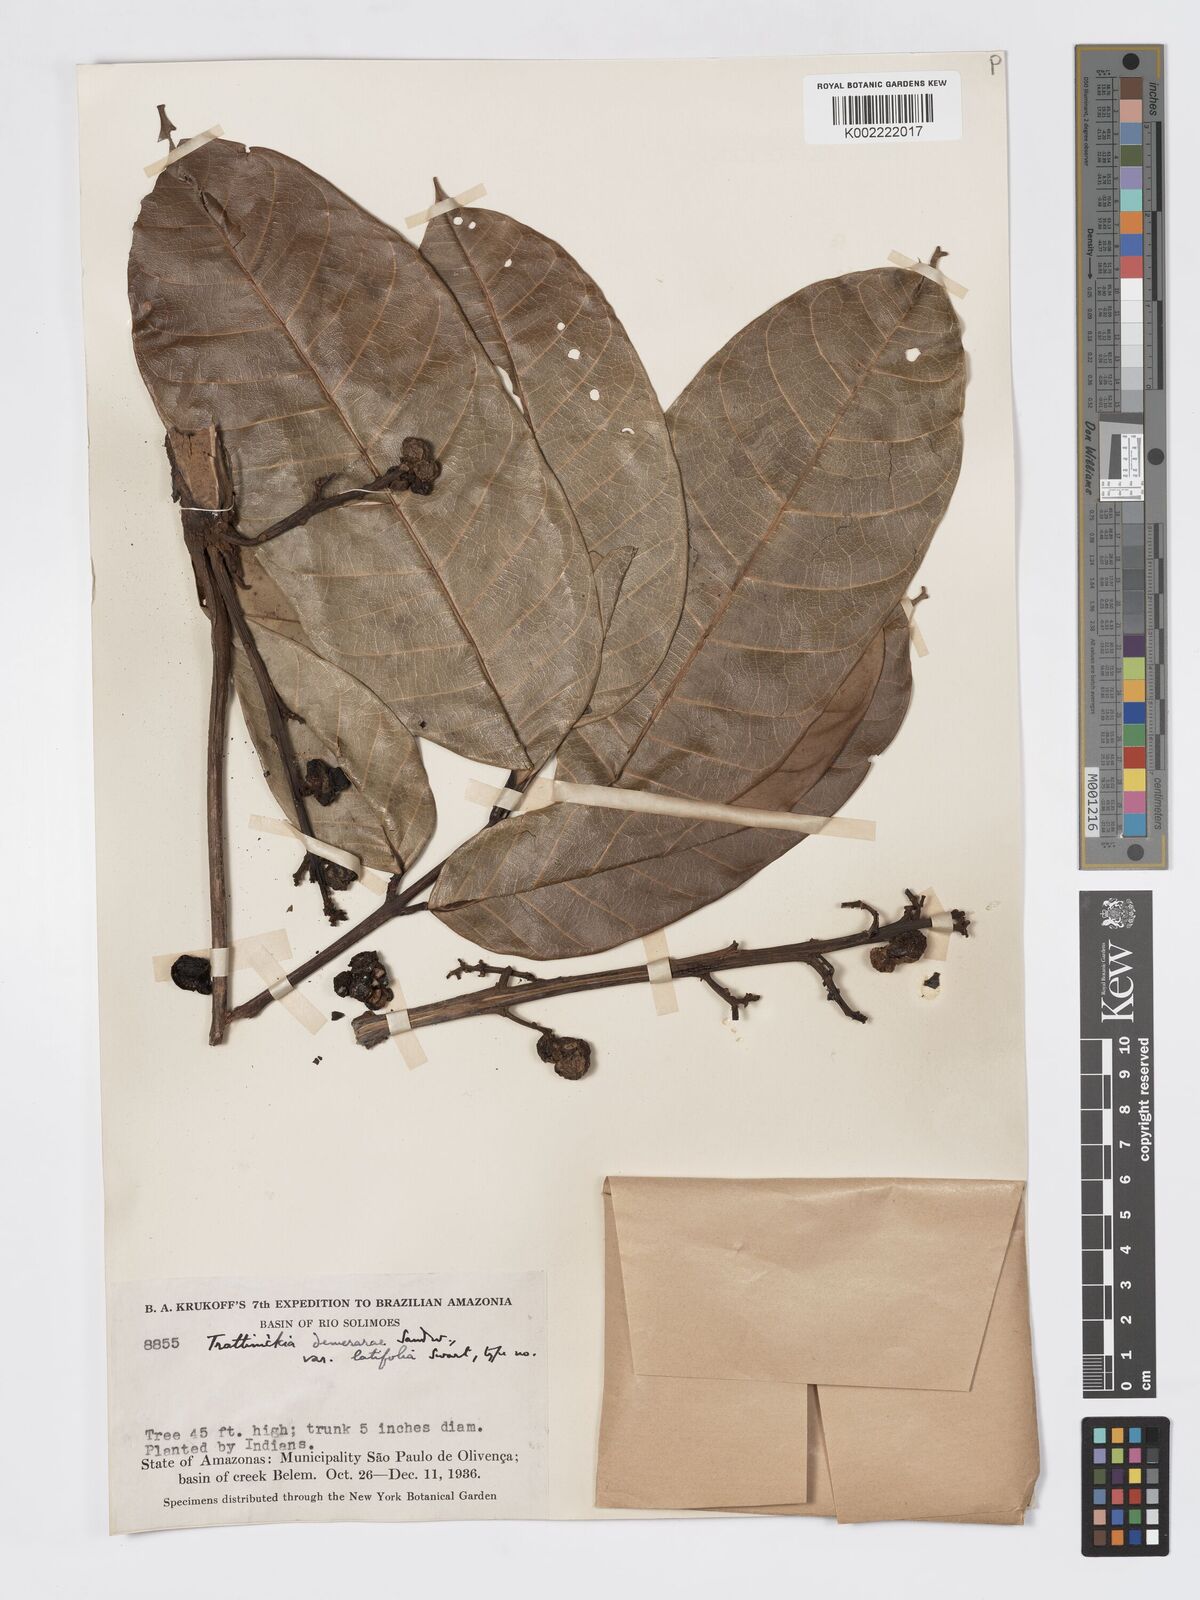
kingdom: Plantae
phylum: Tracheophyta
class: Magnoliopsida
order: Sapindales
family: Burseraceae
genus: Trattinnickia
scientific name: Trattinnickia demerarae
